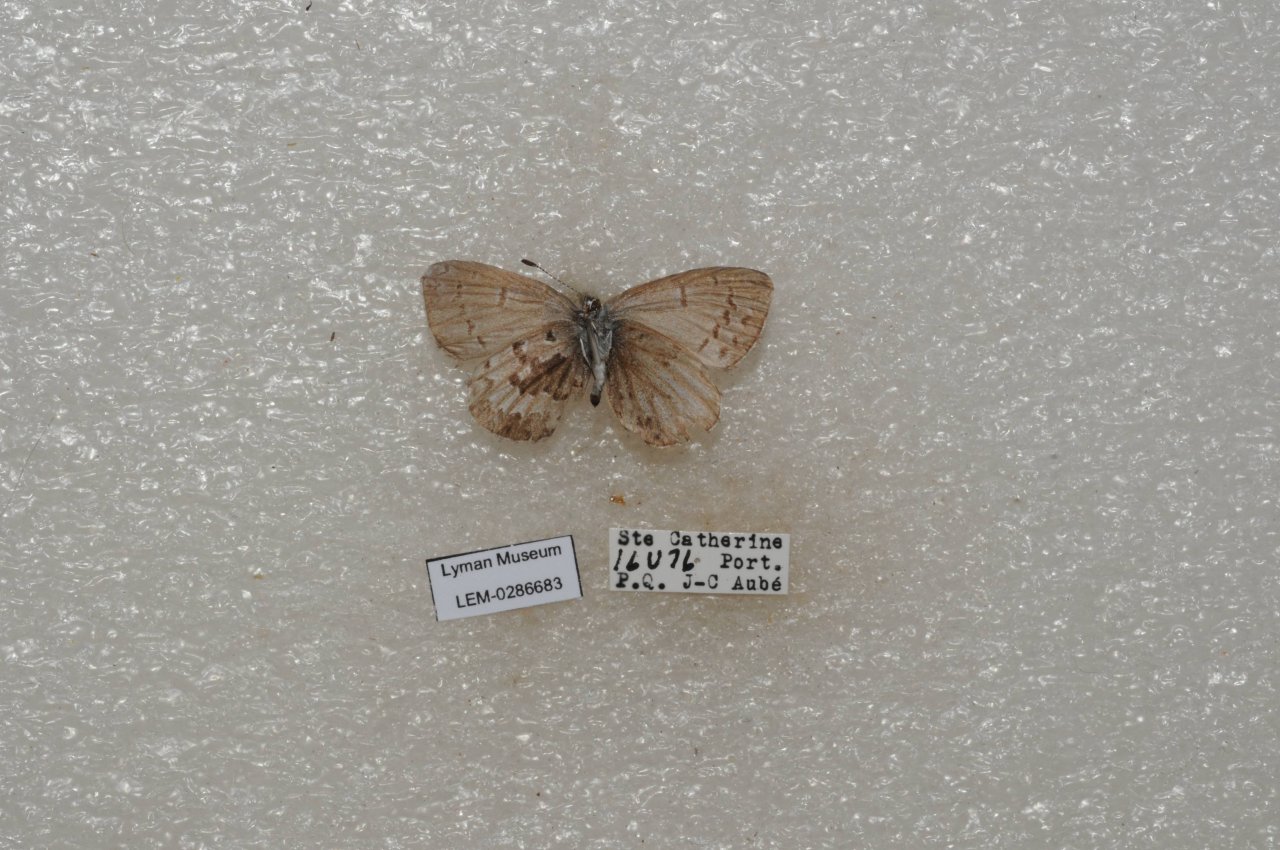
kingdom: Animalia
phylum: Arthropoda
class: Insecta
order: Lepidoptera
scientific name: Lepidoptera
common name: Butterflies
